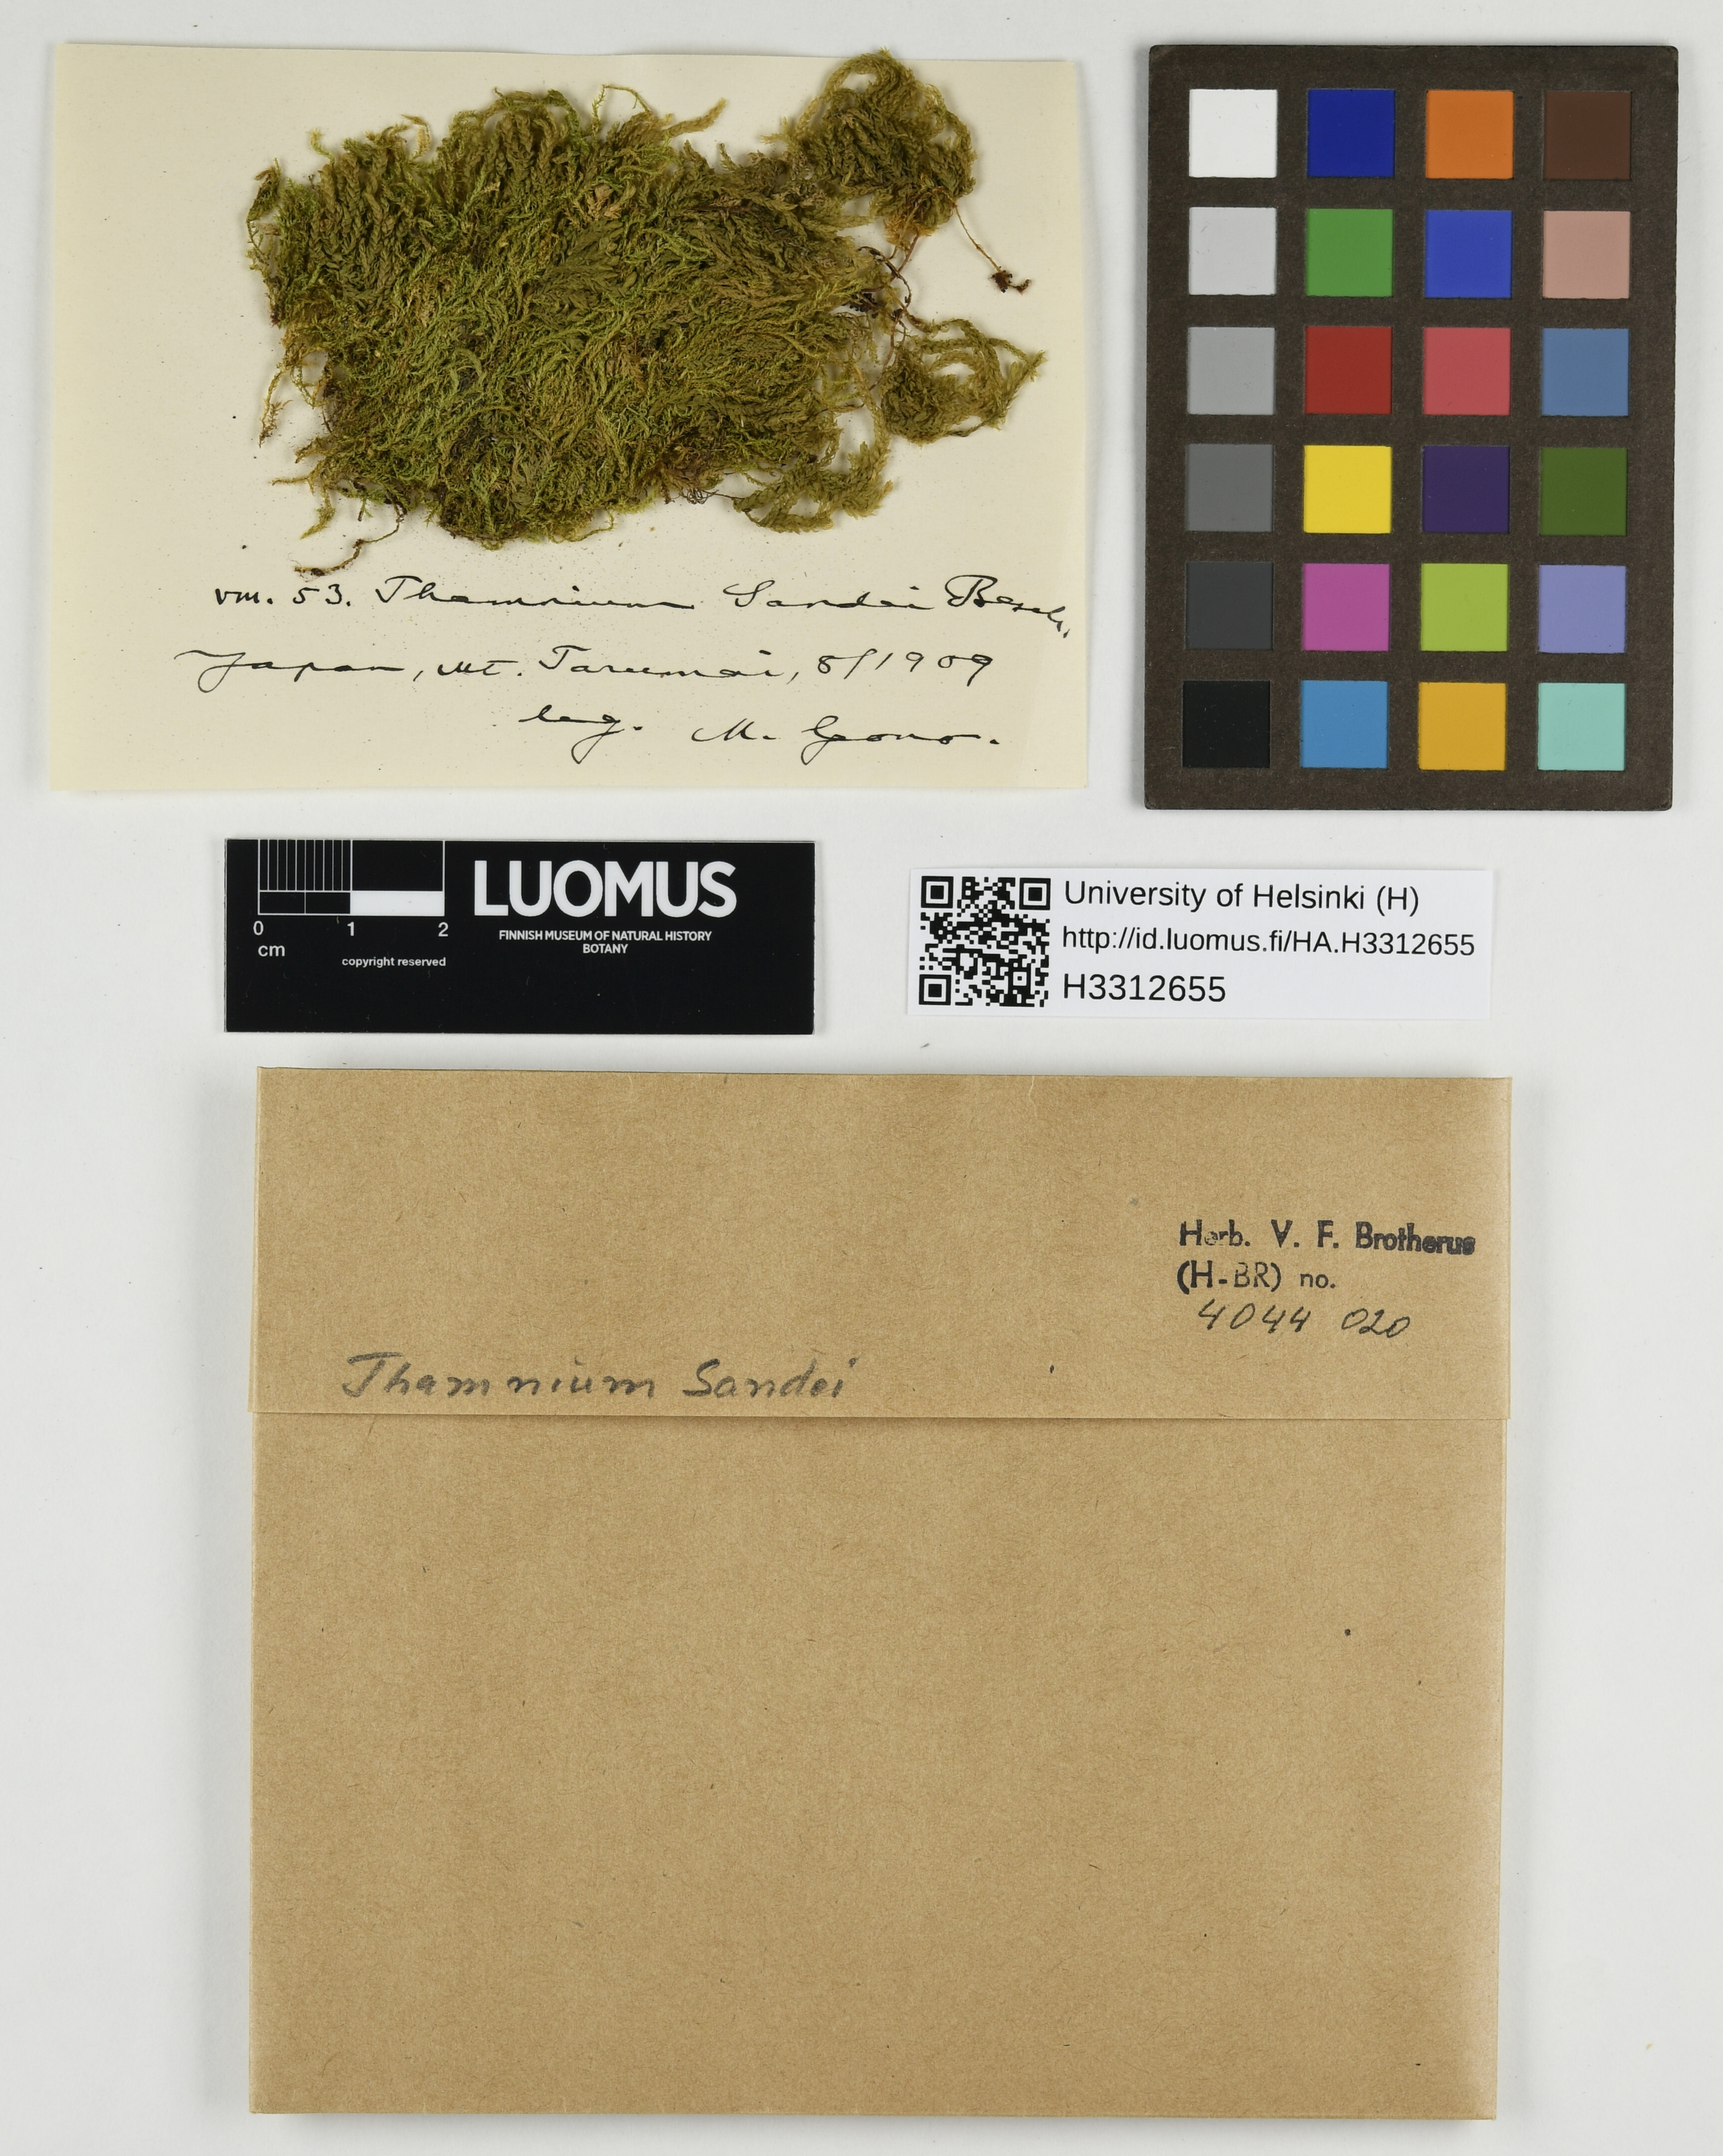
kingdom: Plantae
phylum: Bryophyta
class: Bryopsida
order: Hypnales
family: Neckeraceae
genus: Thamnobryum
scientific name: Thamnobryum subseriatum
